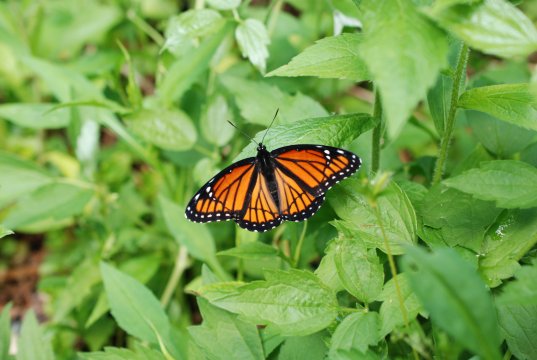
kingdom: Animalia
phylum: Arthropoda
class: Insecta
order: Lepidoptera
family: Nymphalidae
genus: Limenitis
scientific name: Limenitis archippus
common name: Viceroy
